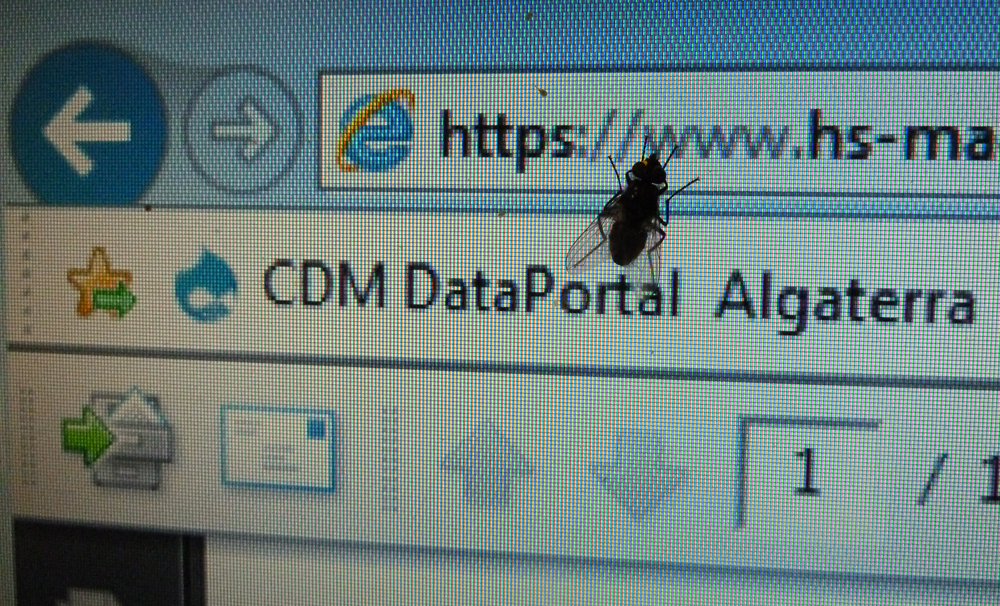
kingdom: Animalia
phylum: Arthropoda
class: Insecta
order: Diptera
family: Fanniidae
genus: Fannia
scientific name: Fannia canicularis
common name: Little house fly
